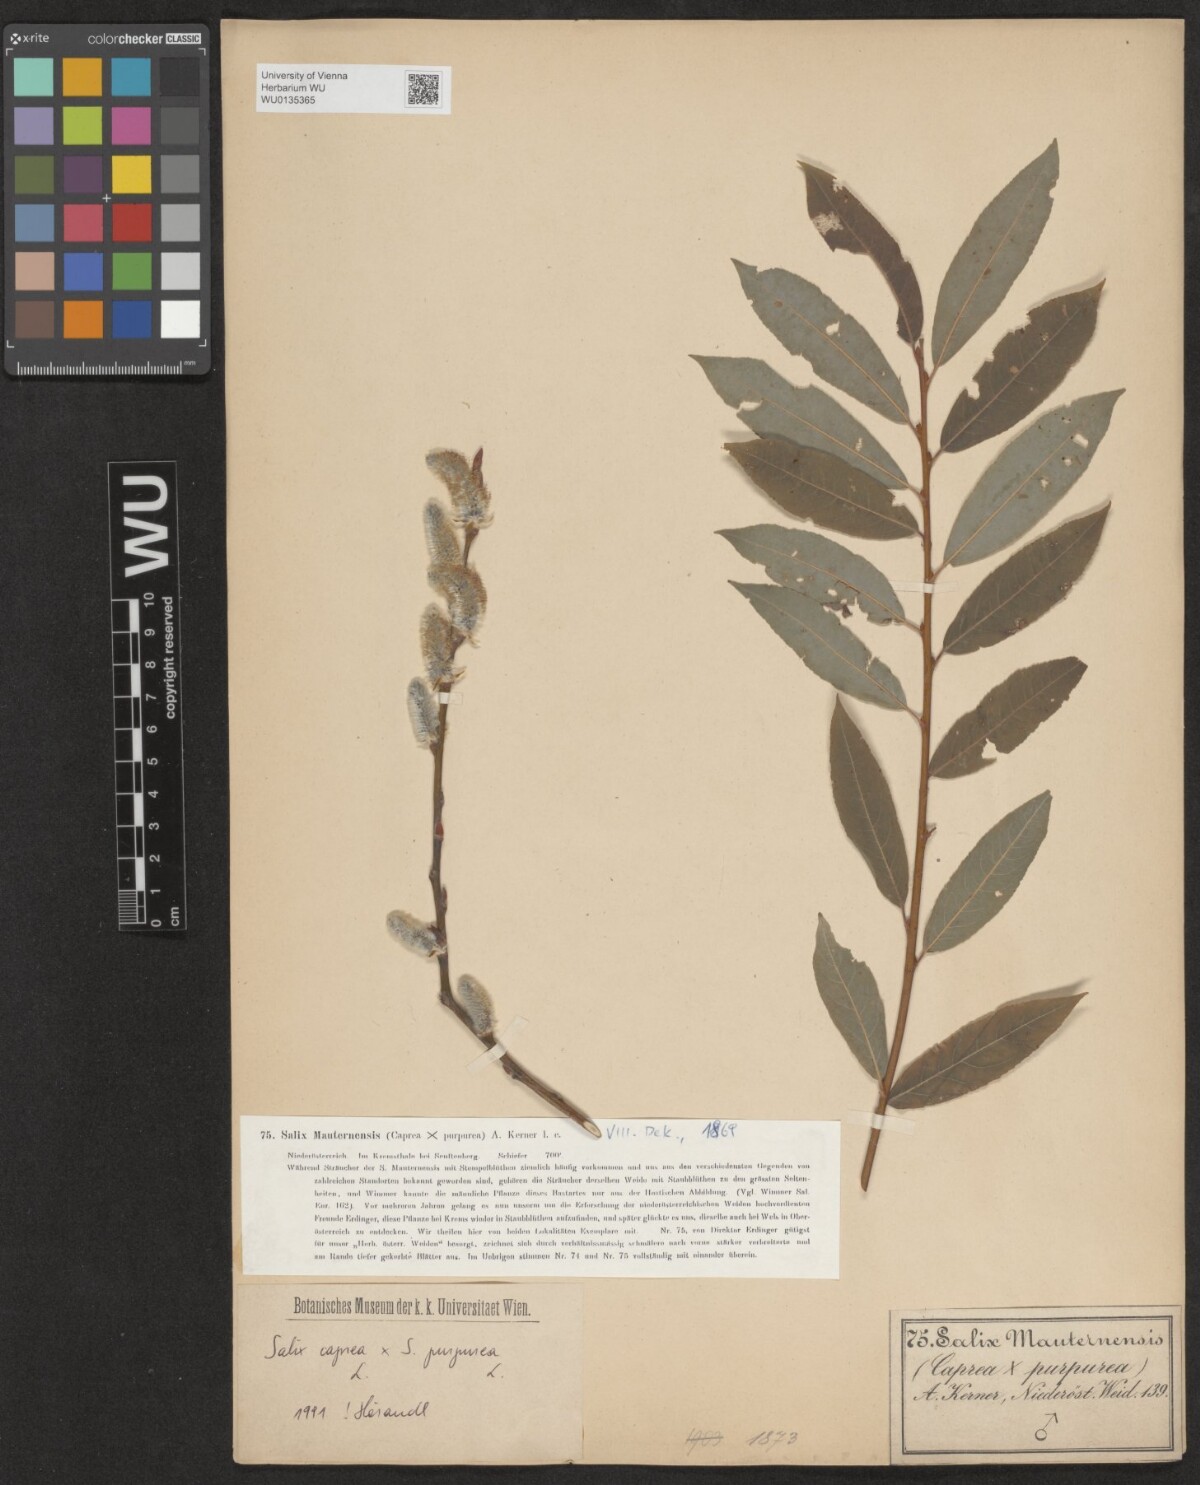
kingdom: Plantae
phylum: Tracheophyta
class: Magnoliopsida
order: Malpighiales
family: Salicaceae
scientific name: Salicaceae
